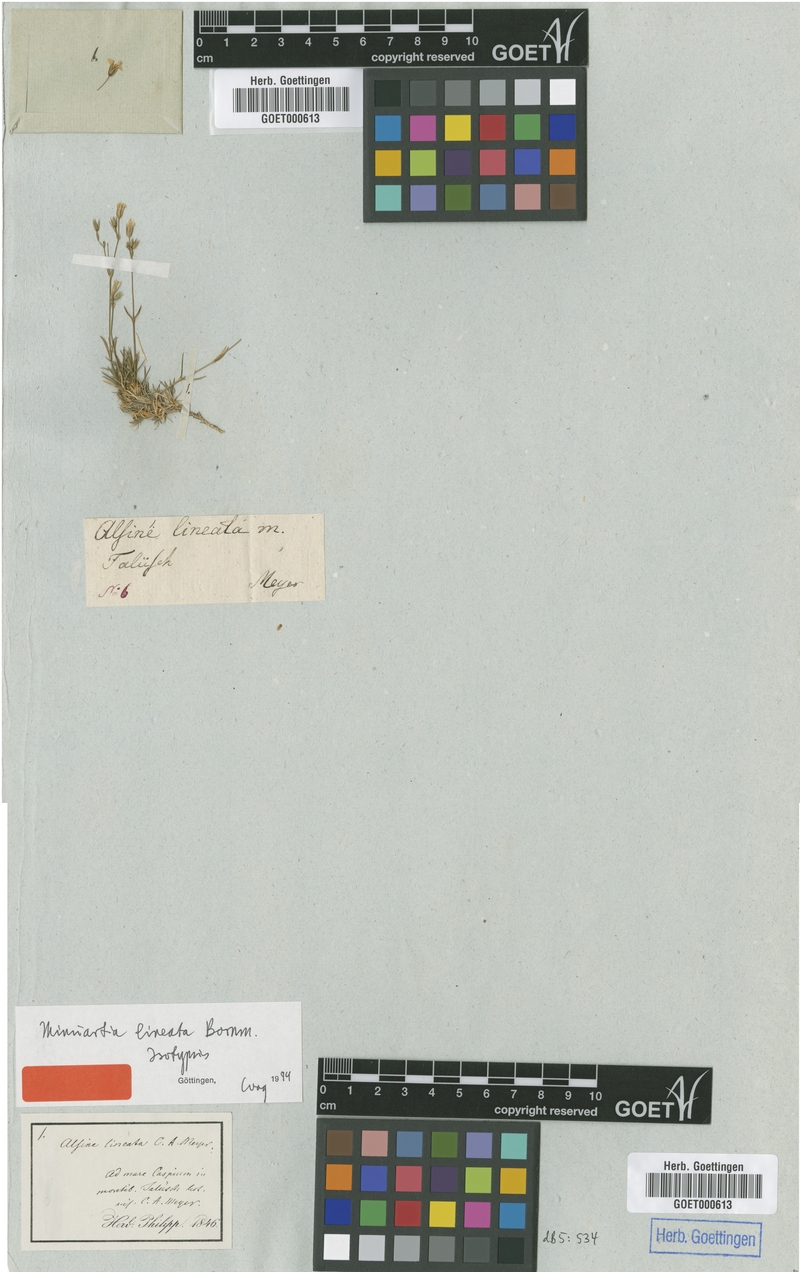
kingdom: Plantae
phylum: Tracheophyta
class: Magnoliopsida
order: Caryophyllales
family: Caryophyllaceae
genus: Sabulina
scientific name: Sabulina lineata
